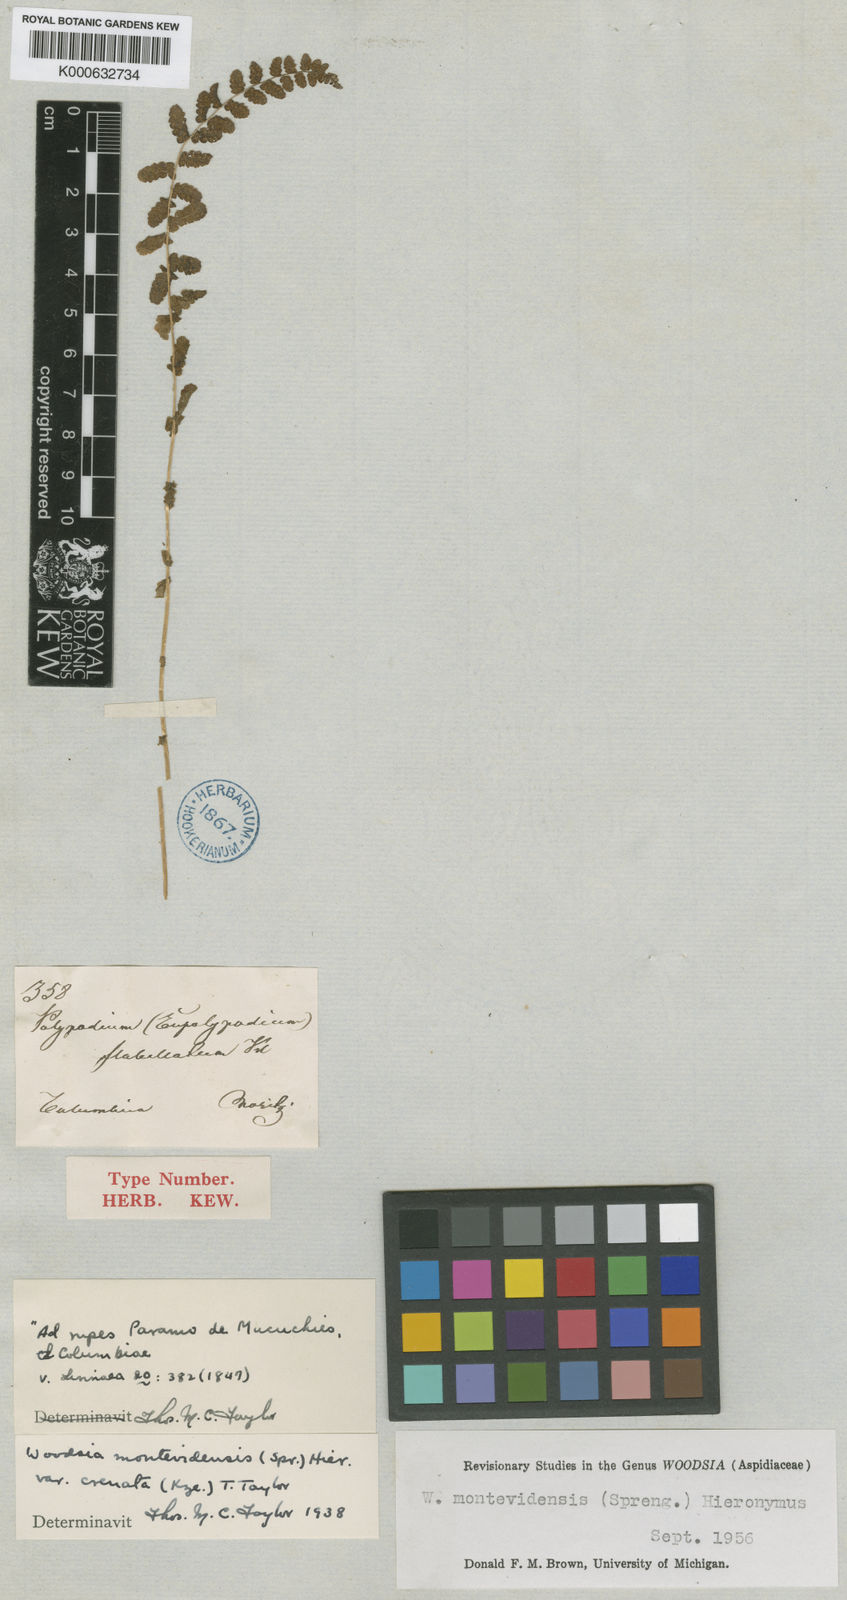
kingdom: Plantae
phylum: Tracheophyta
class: Polypodiopsida
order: Polypodiales
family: Woodsiaceae
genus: Physematium
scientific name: Physematium montevidense
